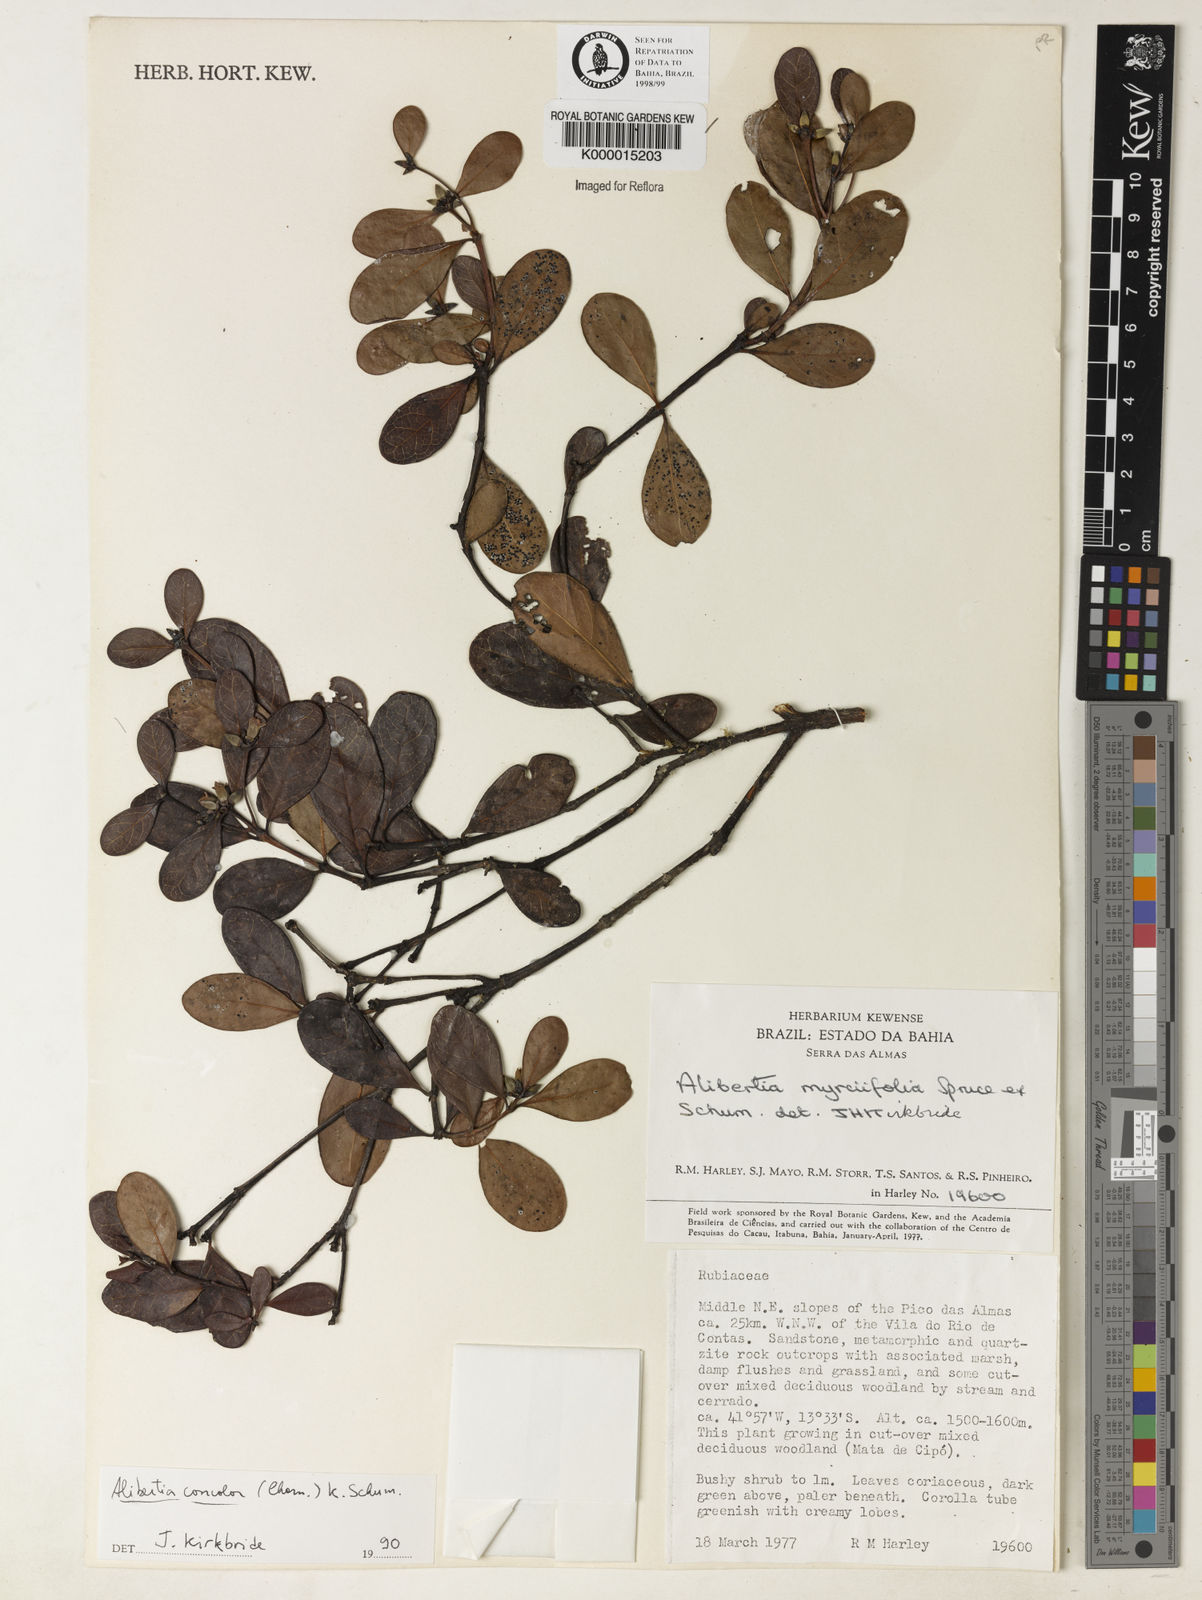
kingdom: Plantae
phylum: Tracheophyta
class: Magnoliopsida
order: Gentianales
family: Rubiaceae
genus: Cordiera
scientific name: Cordiera concolor
